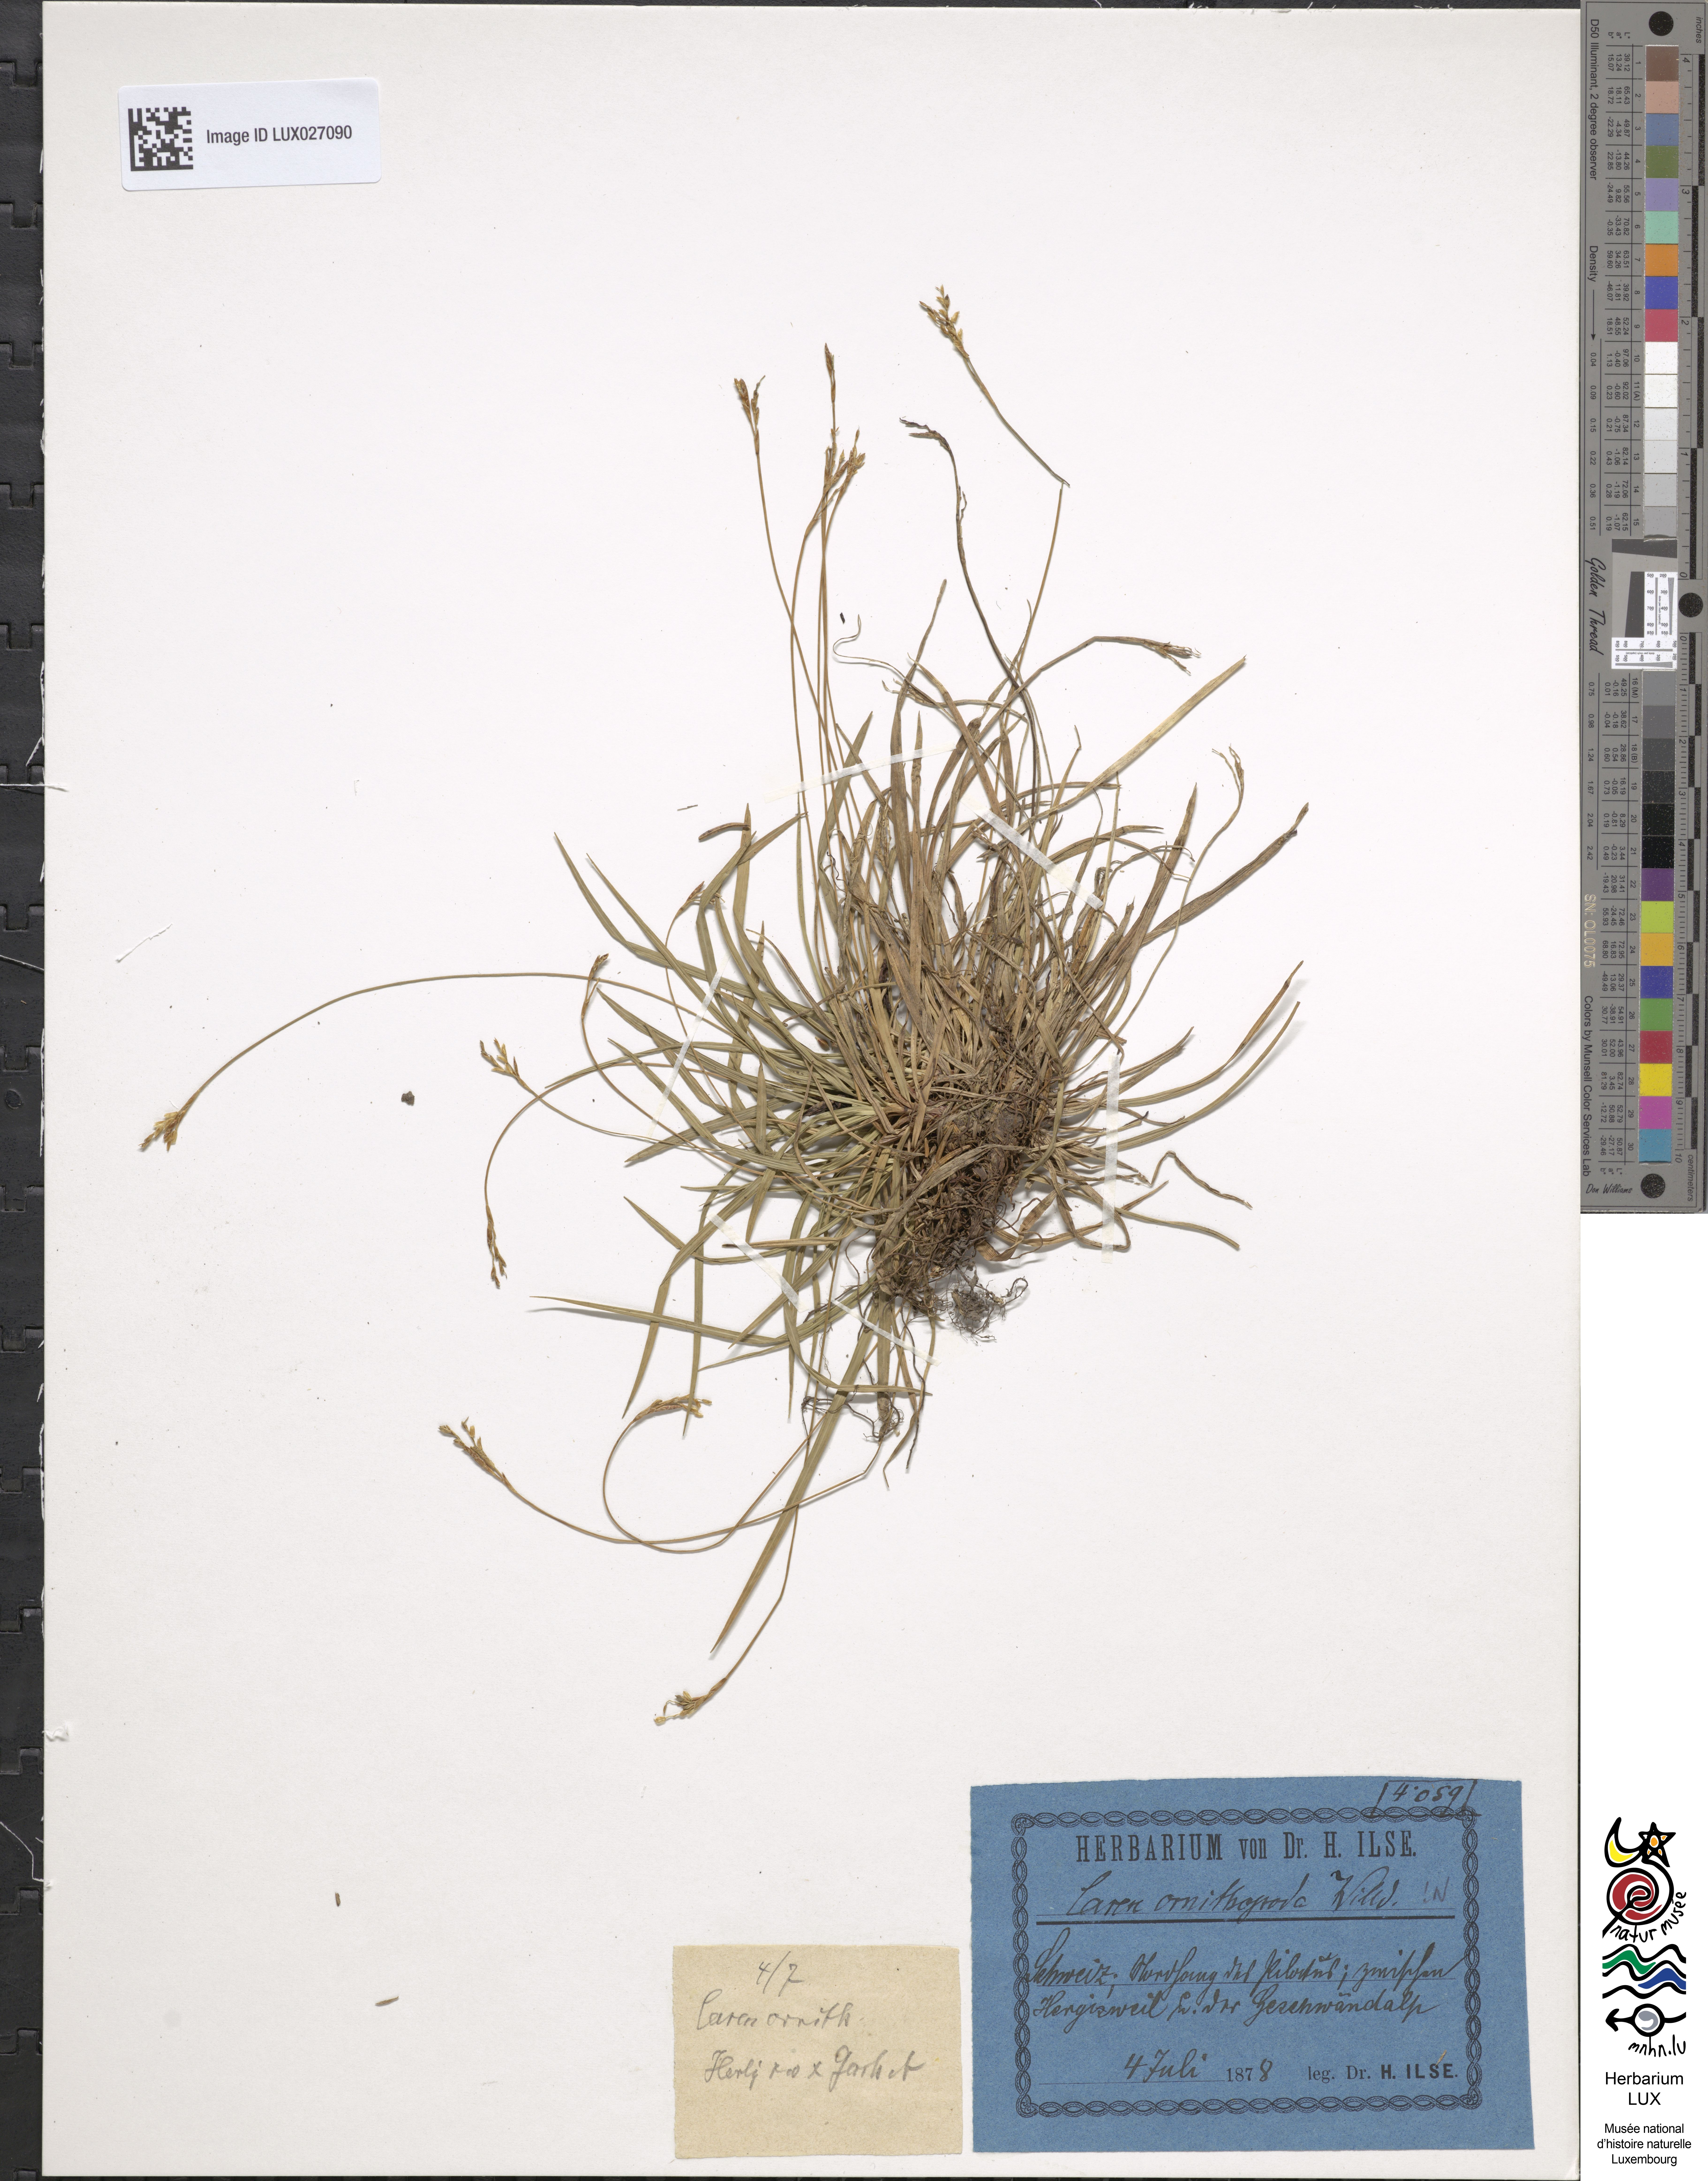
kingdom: Plantae
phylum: Tracheophyta
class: Liliopsida
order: Poales
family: Cyperaceae
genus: Carex
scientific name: Carex ornithopoda
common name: Bird's-foot sedge
